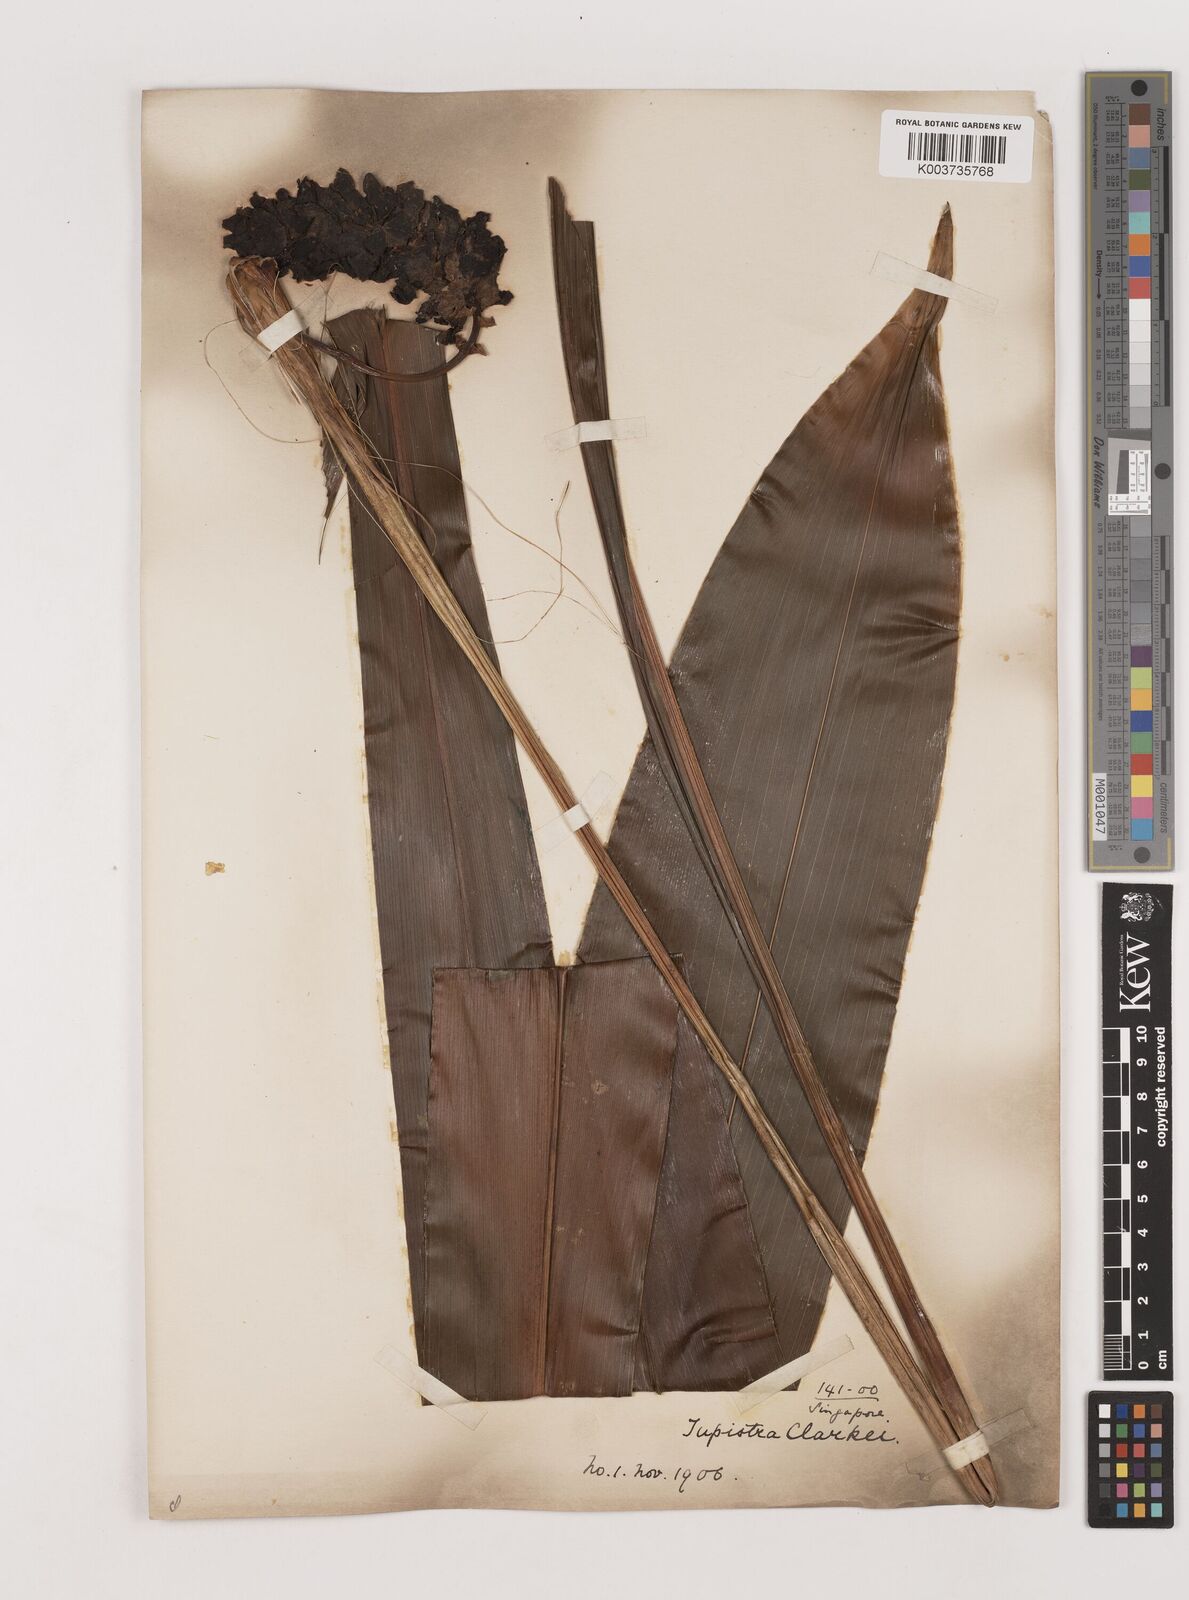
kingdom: Plantae
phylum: Tracheophyta
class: Liliopsida
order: Asparagales
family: Asparagaceae
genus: Tupistra
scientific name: Tupistra clarkei
